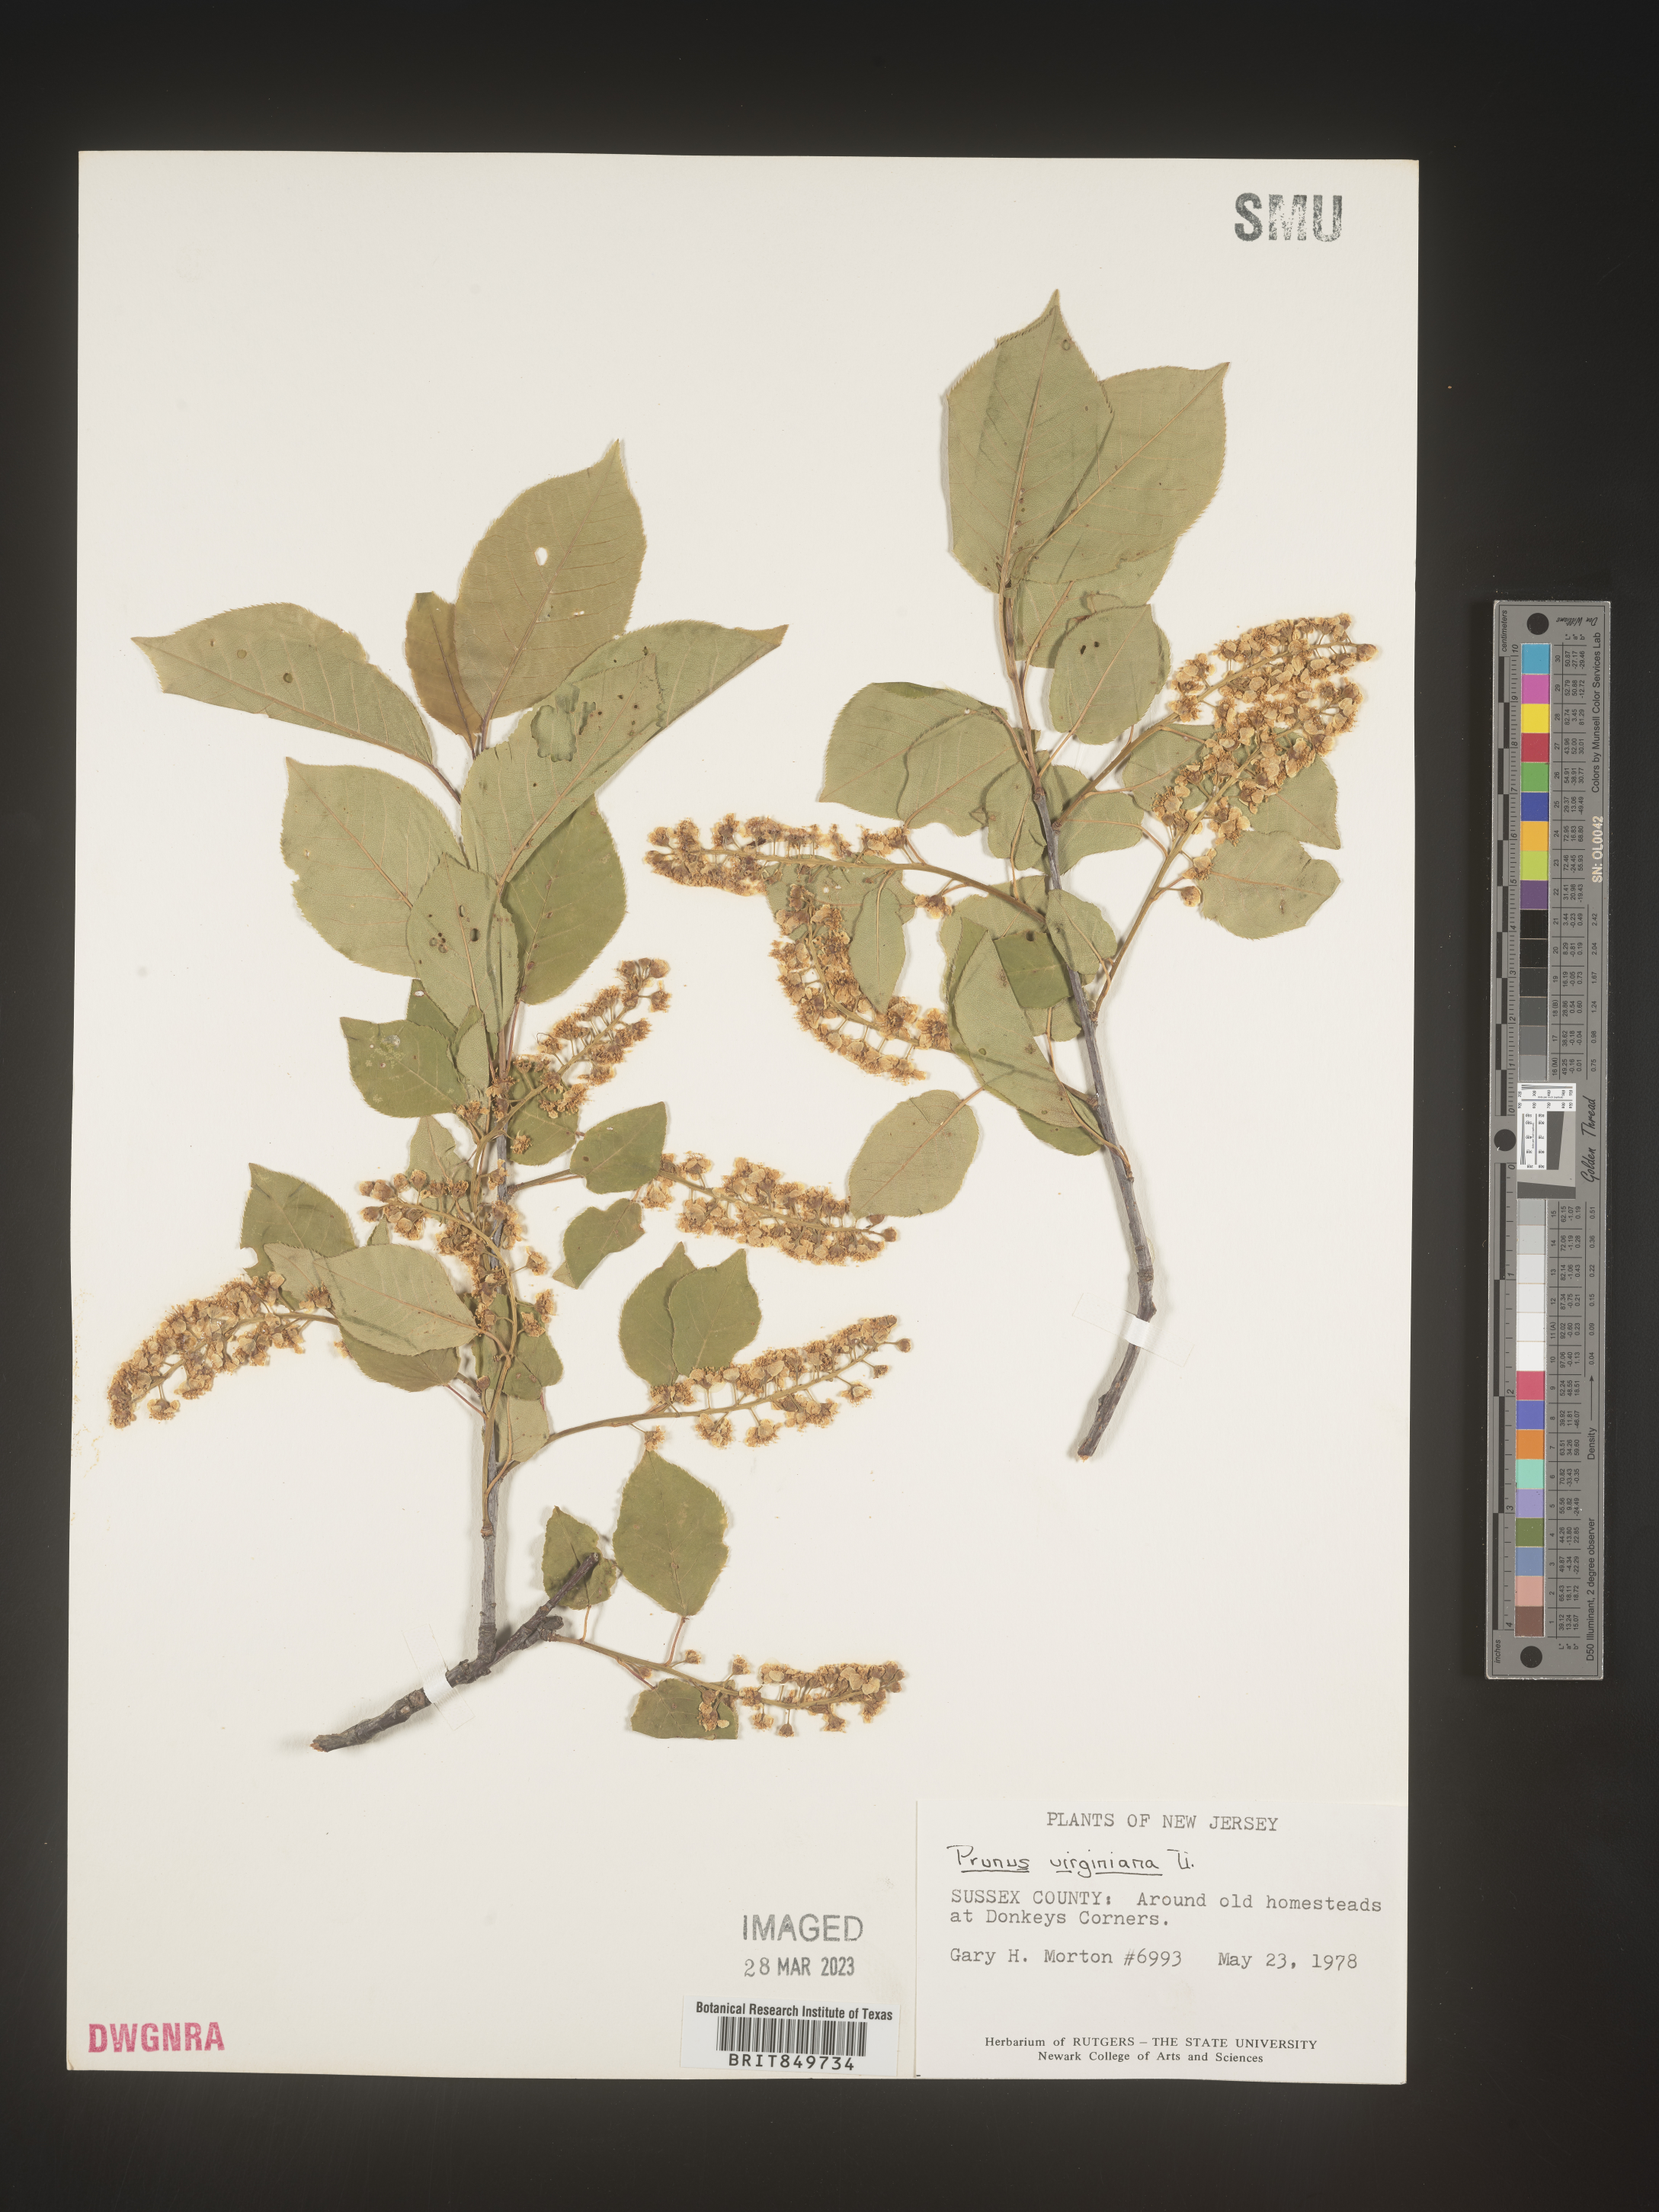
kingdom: Plantae
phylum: Tracheophyta
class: Magnoliopsida
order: Rosales
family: Rosaceae
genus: Prunus
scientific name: Prunus virginiana
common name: Chokecherry
